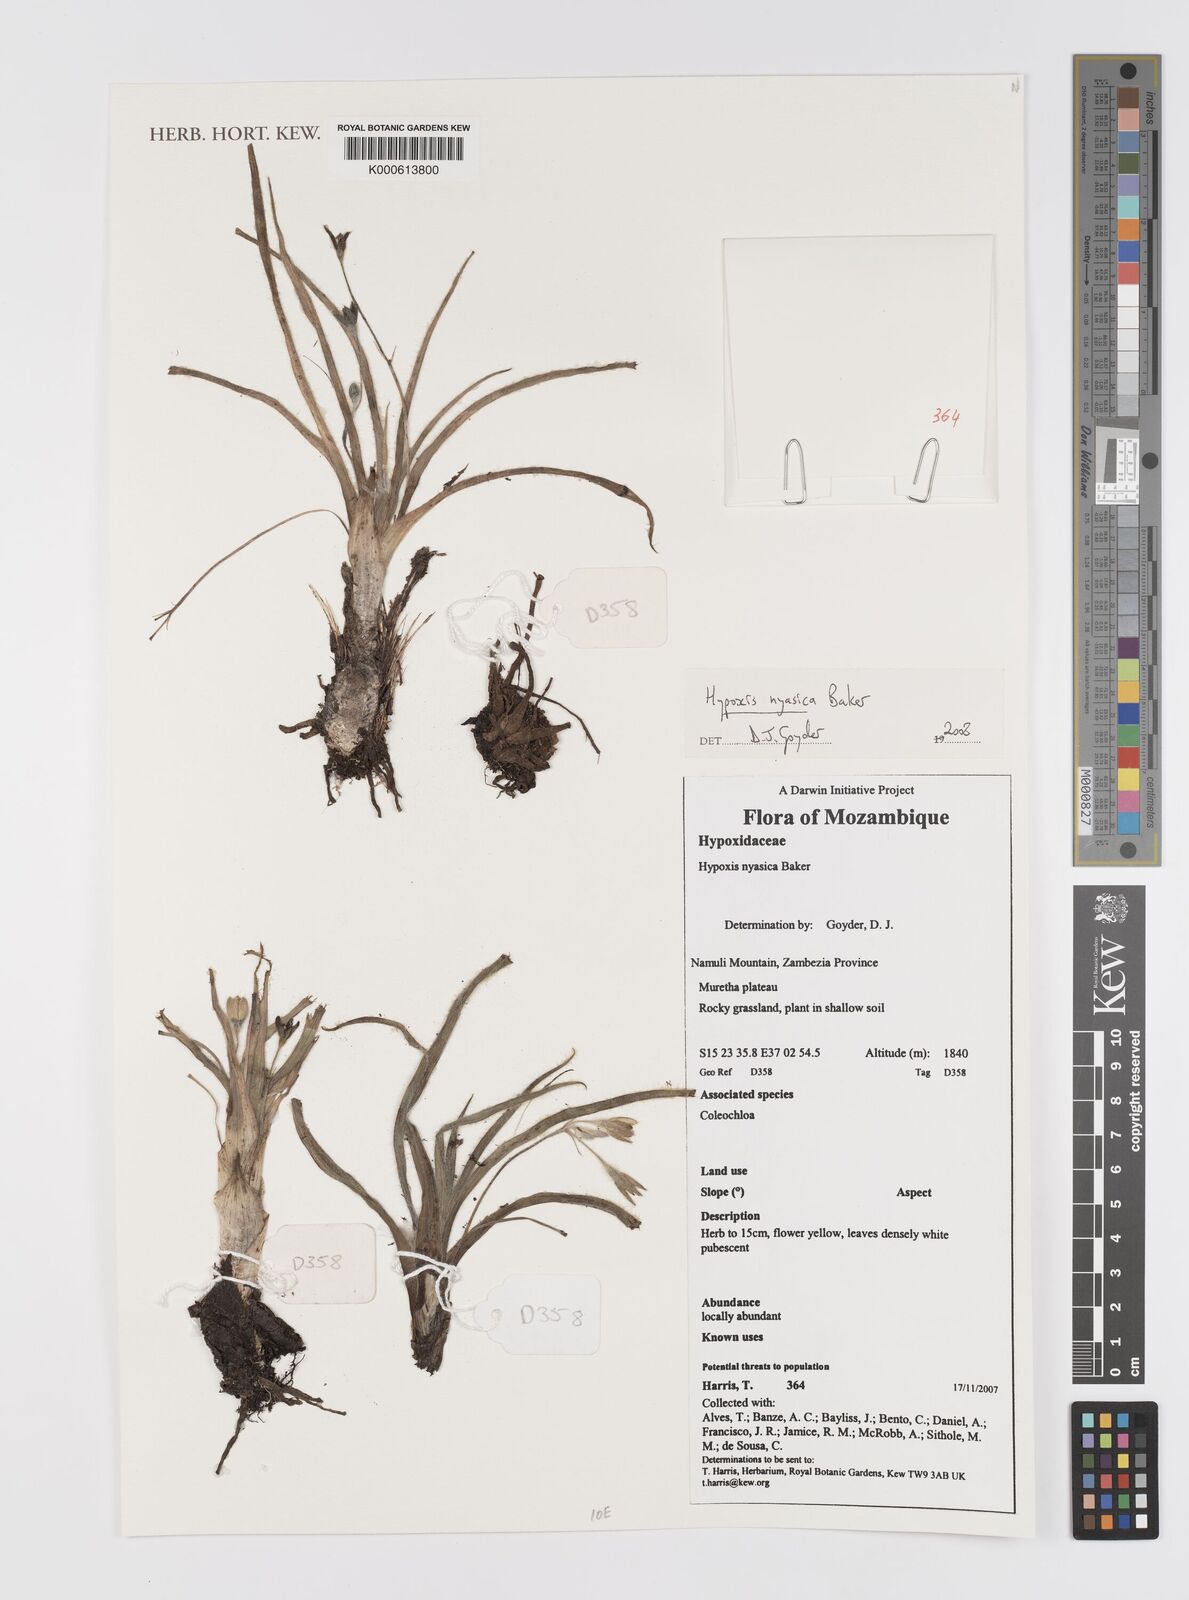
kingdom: Plantae
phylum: Tracheophyta
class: Liliopsida
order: Asparagales
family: Hypoxidaceae
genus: Hypoxis
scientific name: Hypoxis nyasica
